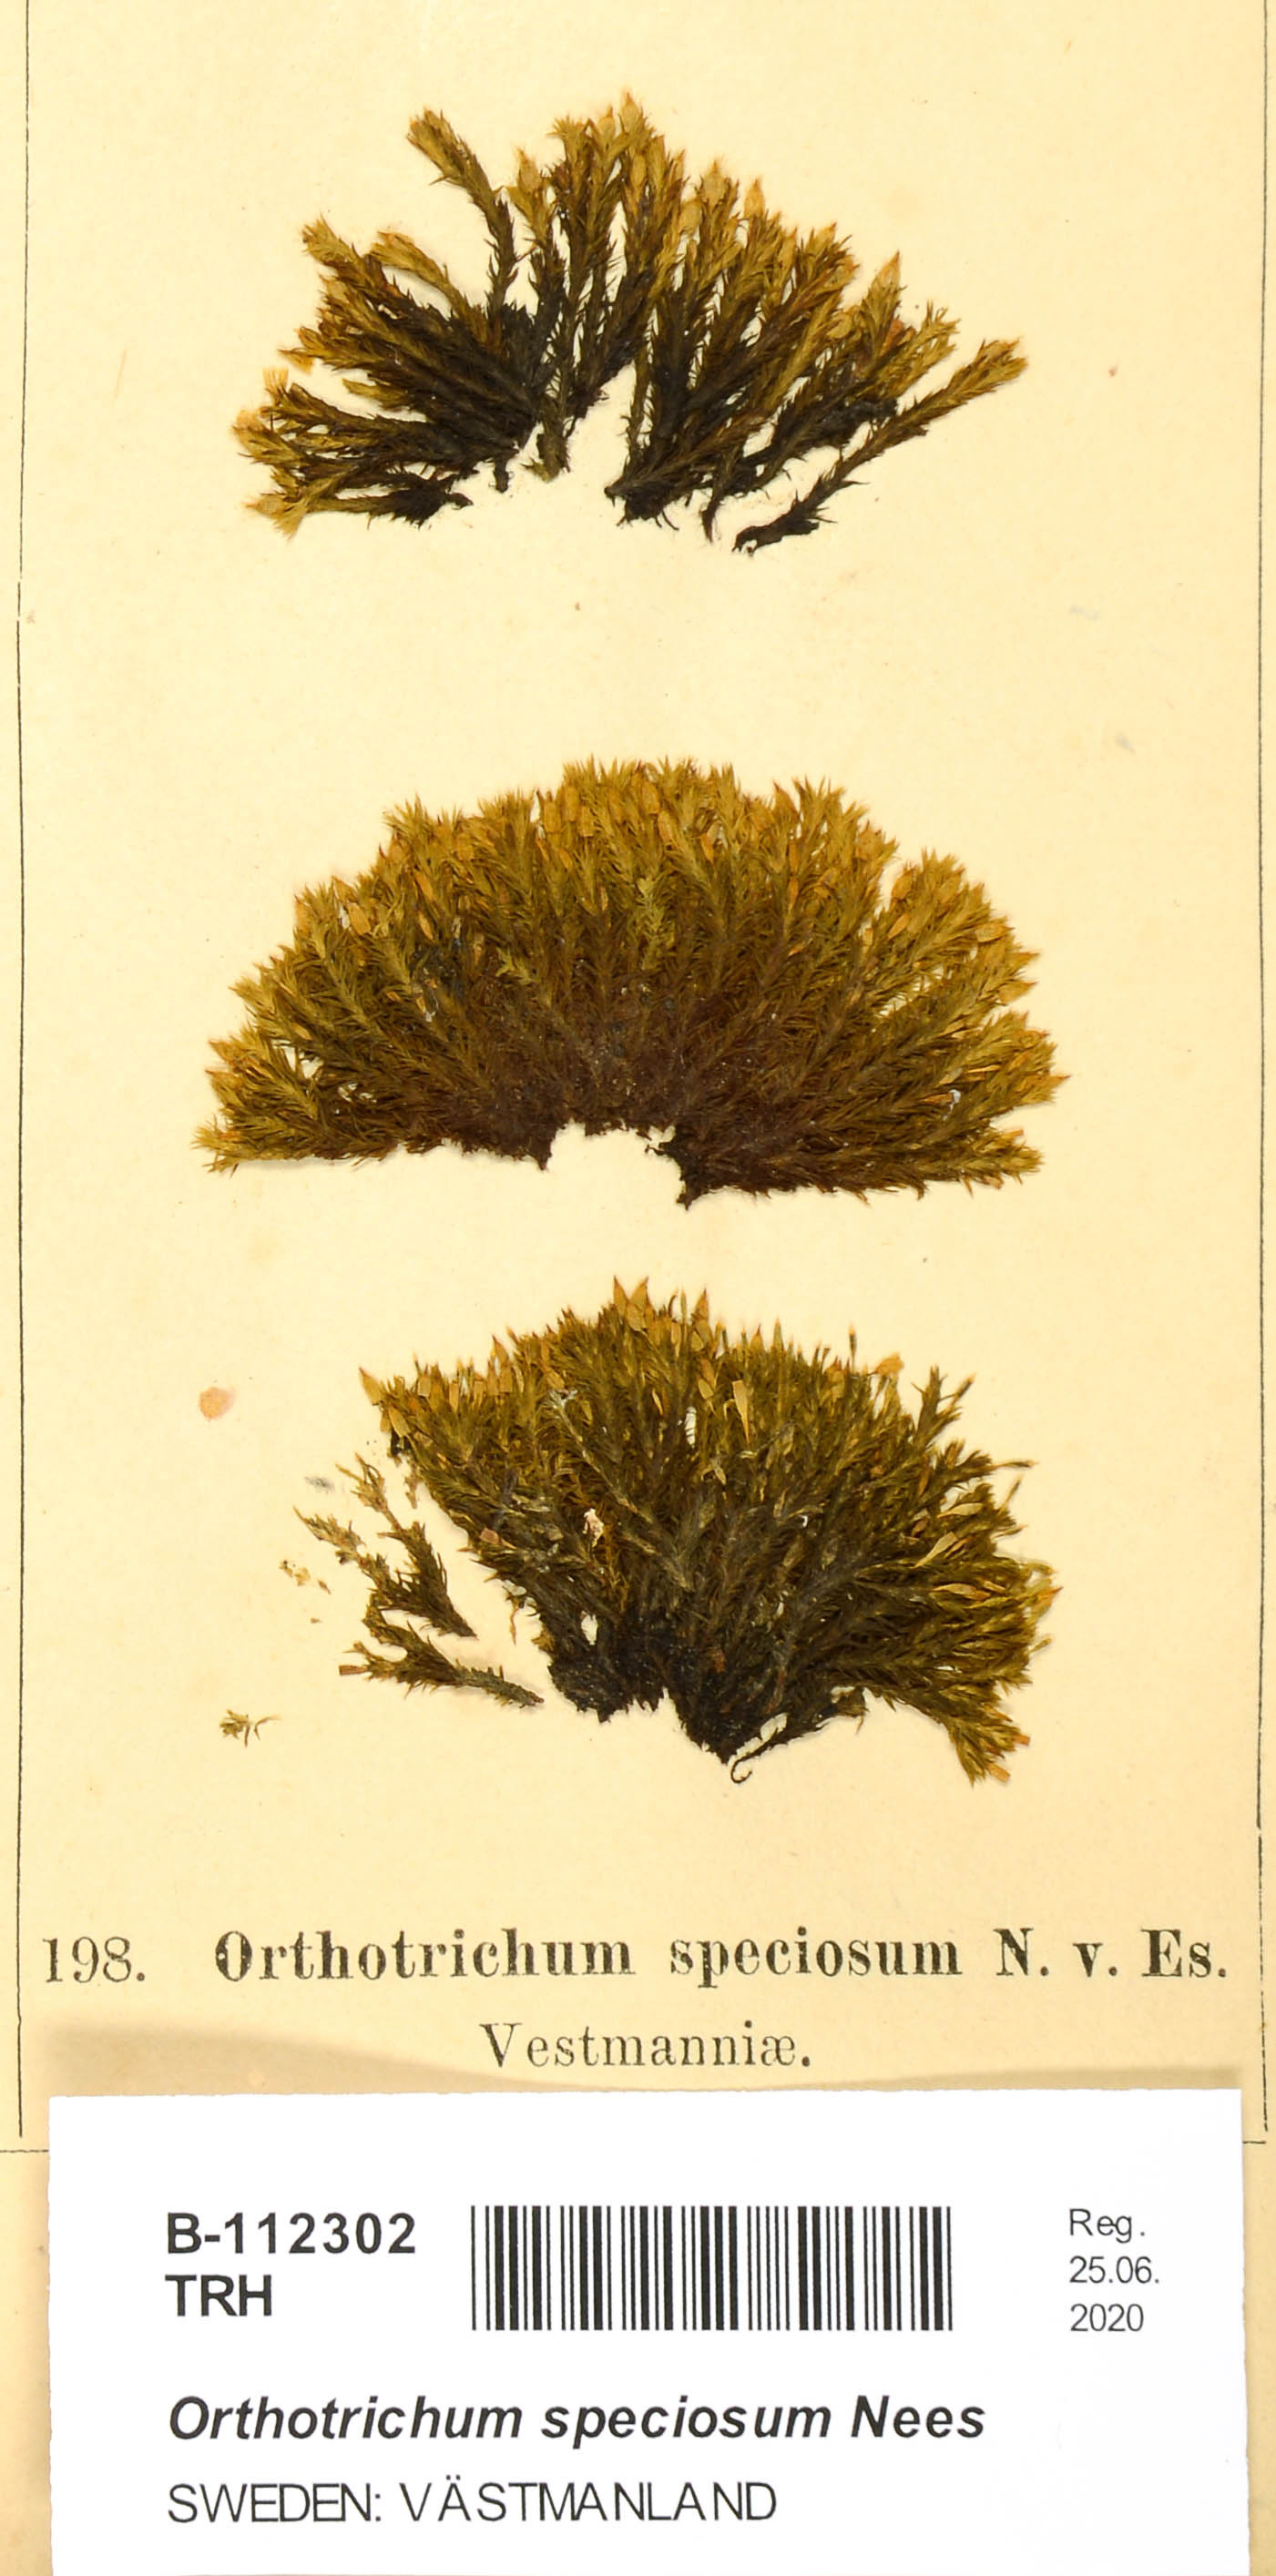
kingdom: Plantae
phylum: Bryophyta
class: Bryopsida
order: Orthotrichales
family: Orthotrichaceae
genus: Lewinskya
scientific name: Lewinskya speciosa
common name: Showy bristle moss
